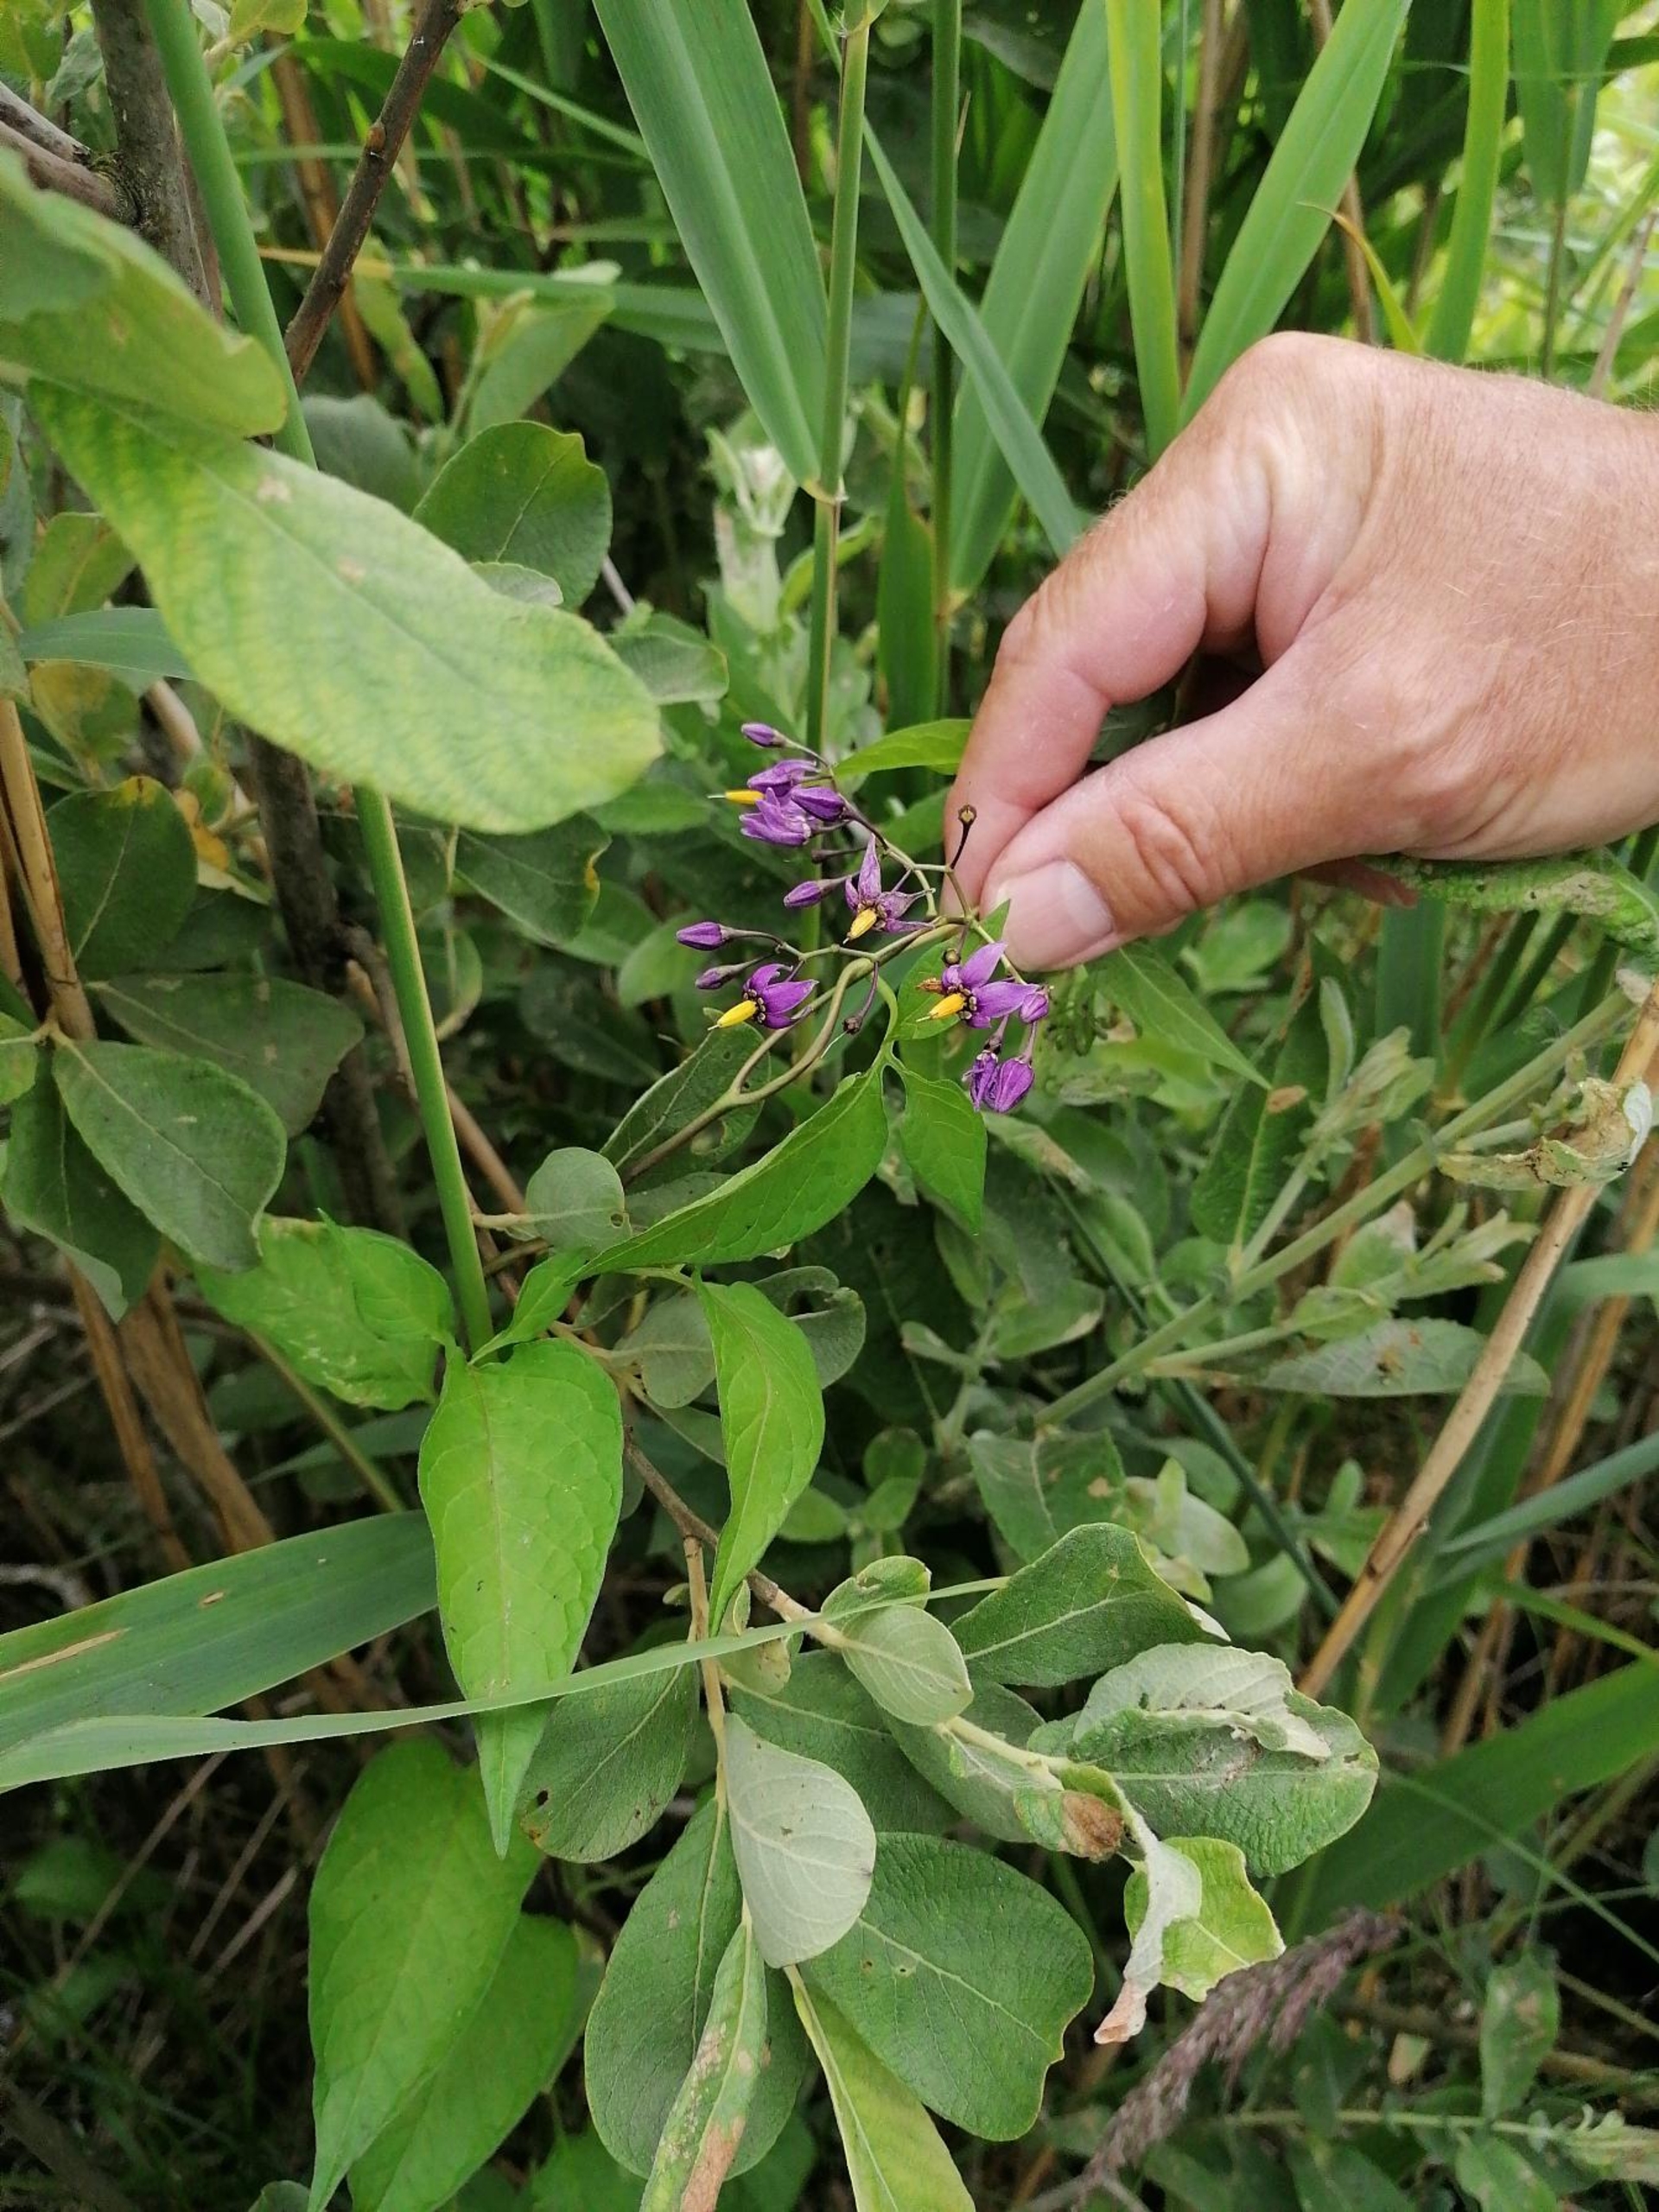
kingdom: Plantae
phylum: Tracheophyta
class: Magnoliopsida
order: Solanales
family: Solanaceae
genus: Solanum
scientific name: Solanum dulcamara
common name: Bittersød natskygge
